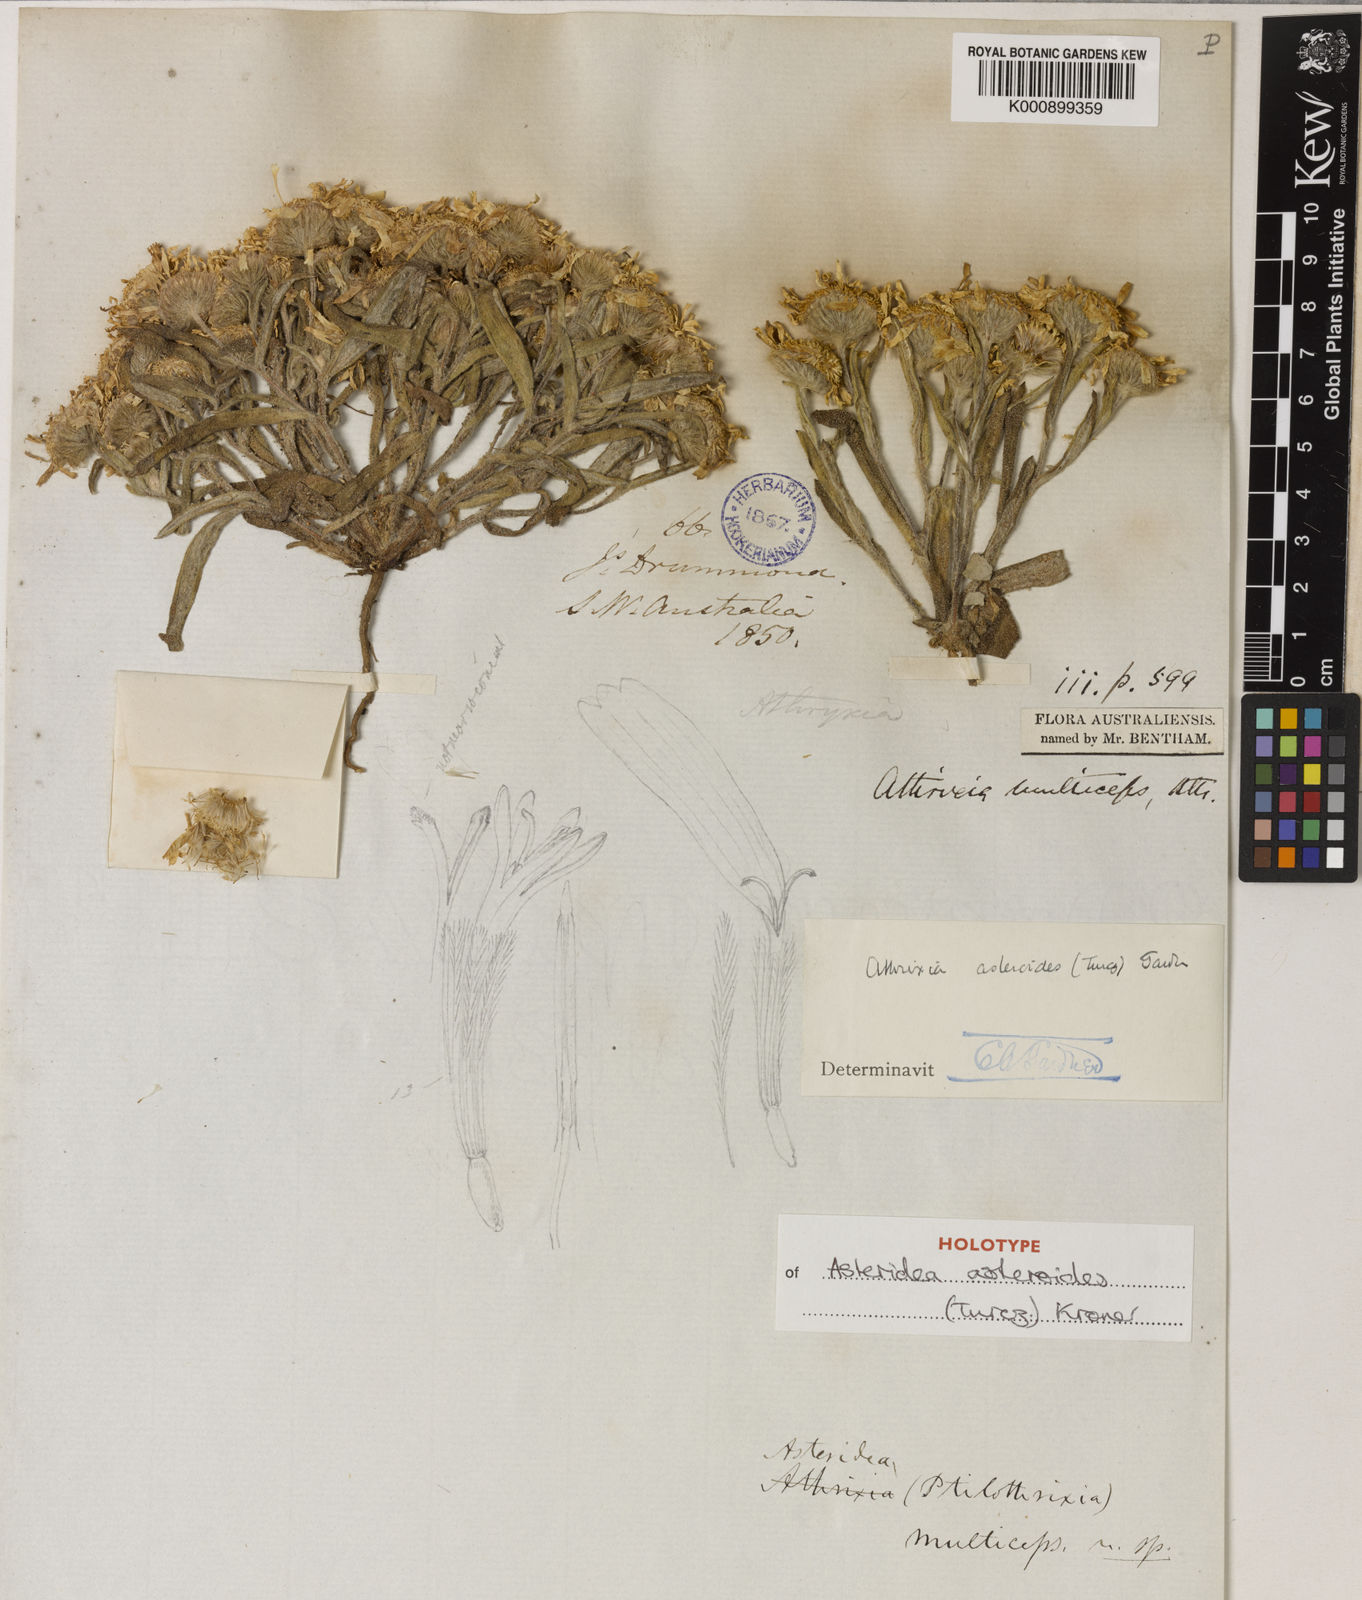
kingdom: Plantae
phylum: Tracheophyta
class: Magnoliopsida
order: Asterales
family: Asteraceae
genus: Asteridea
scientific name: Asteridea
